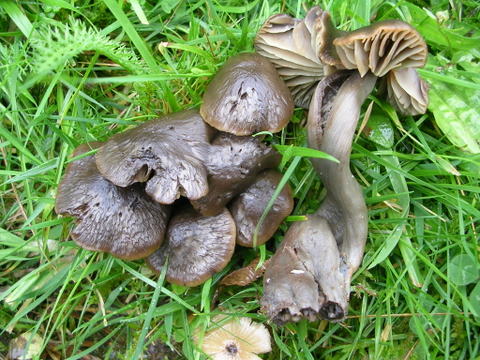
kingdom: Fungi
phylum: Basidiomycota
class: Agaricomycetes
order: Agaricales
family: Hygrophoraceae
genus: Neohygrocybe
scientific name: Neohygrocybe ovina
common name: rødmende vokshat
